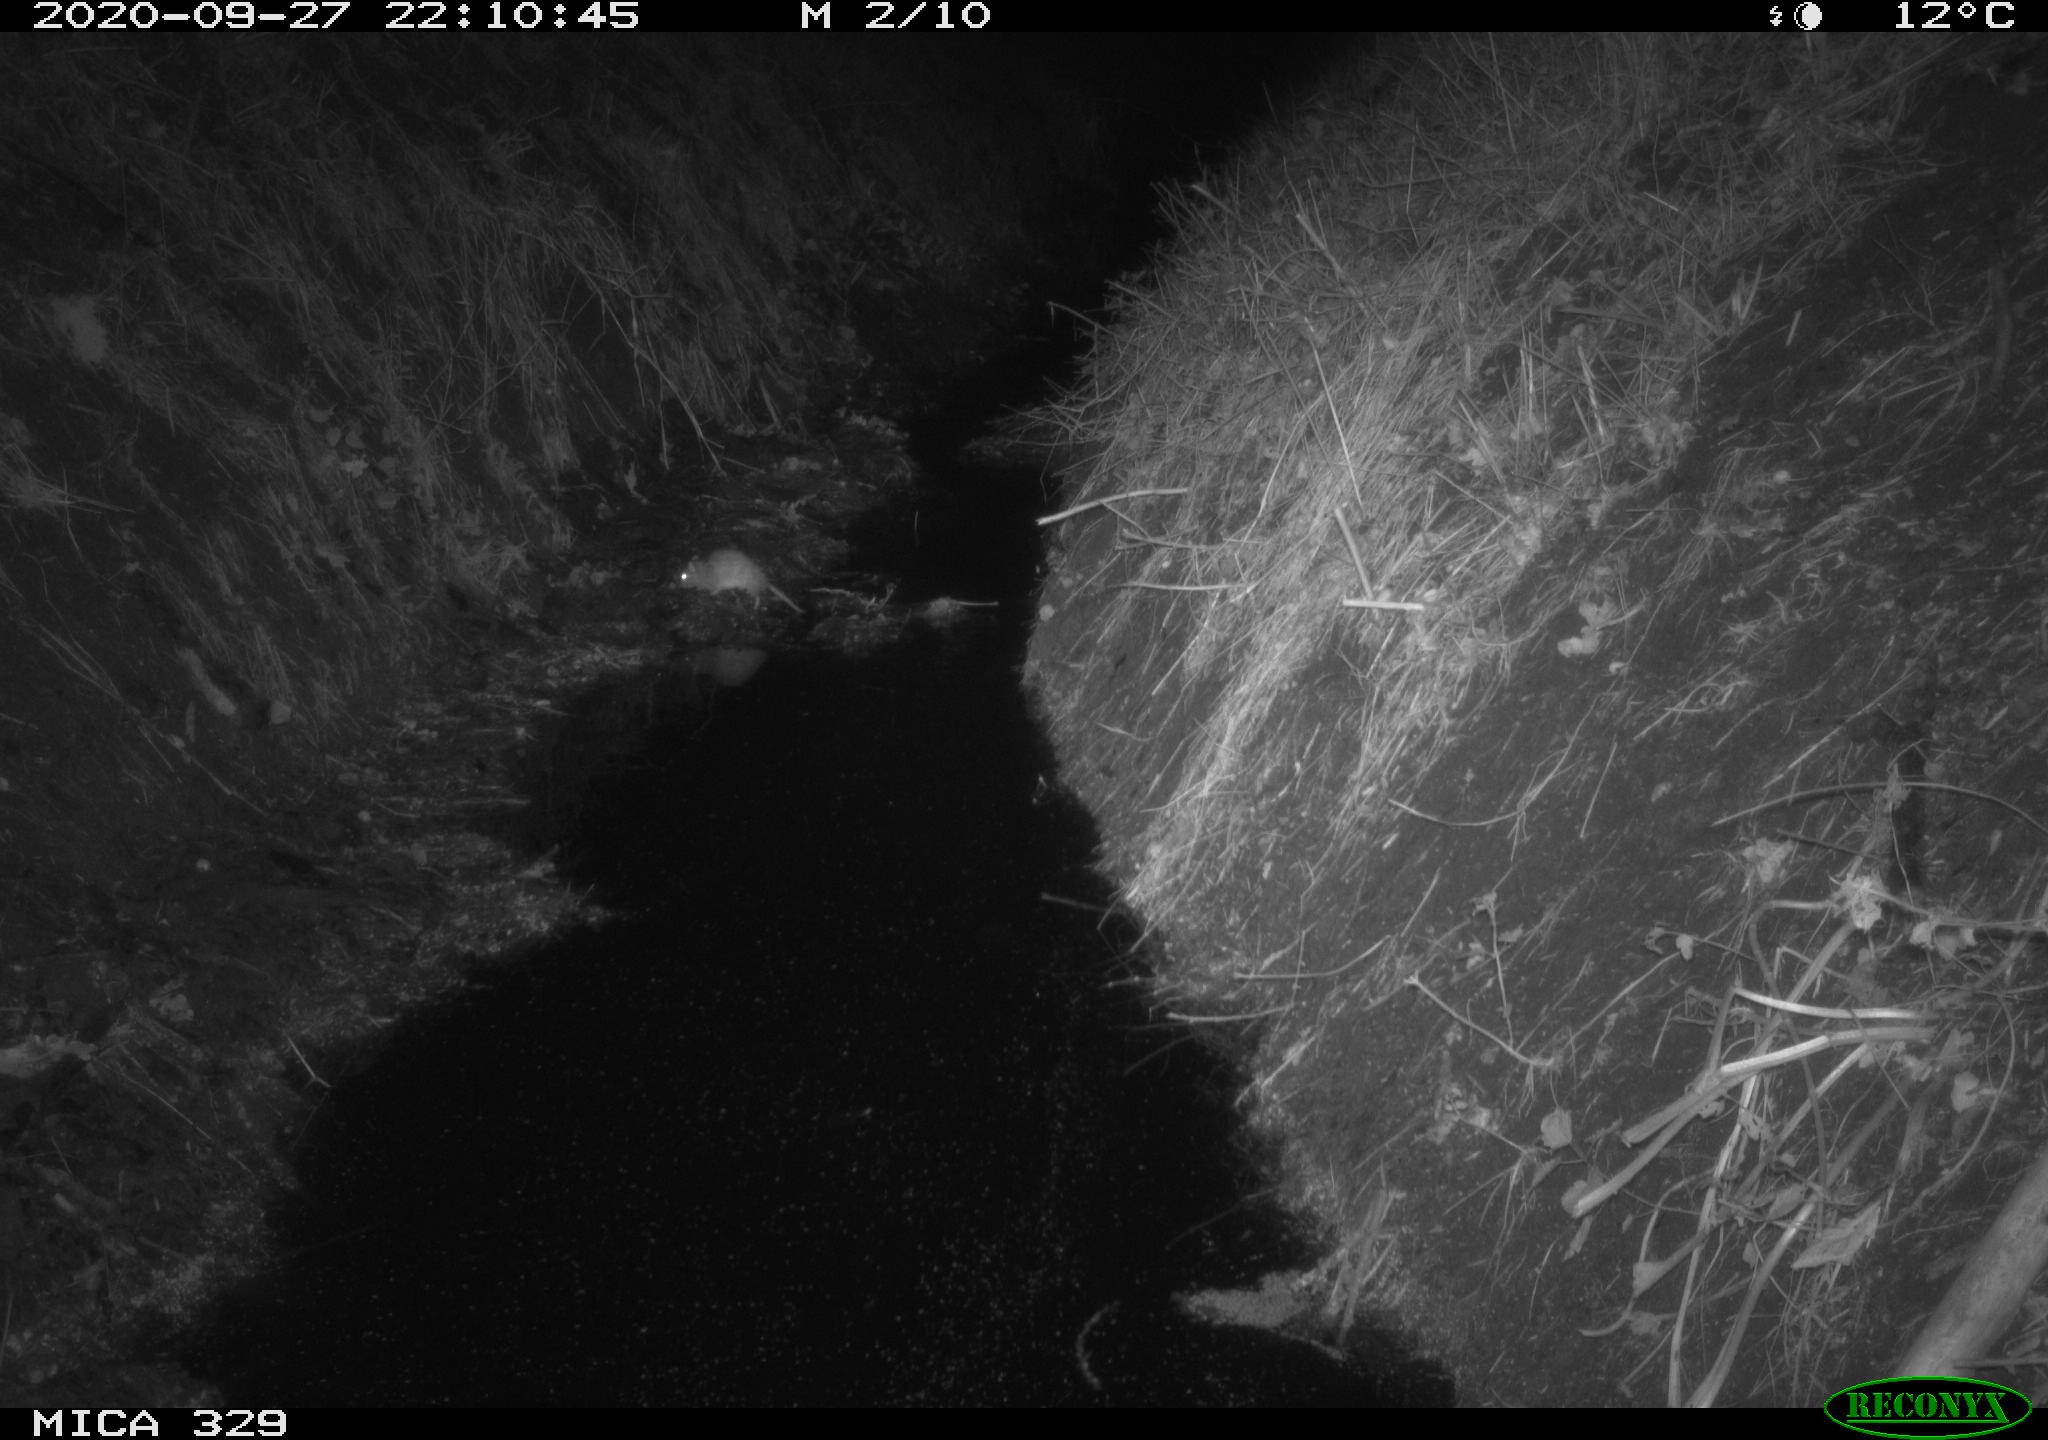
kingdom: Animalia
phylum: Chordata
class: Mammalia
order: Rodentia
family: Muridae
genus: Rattus
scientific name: Rattus norvegicus
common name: Brown rat
